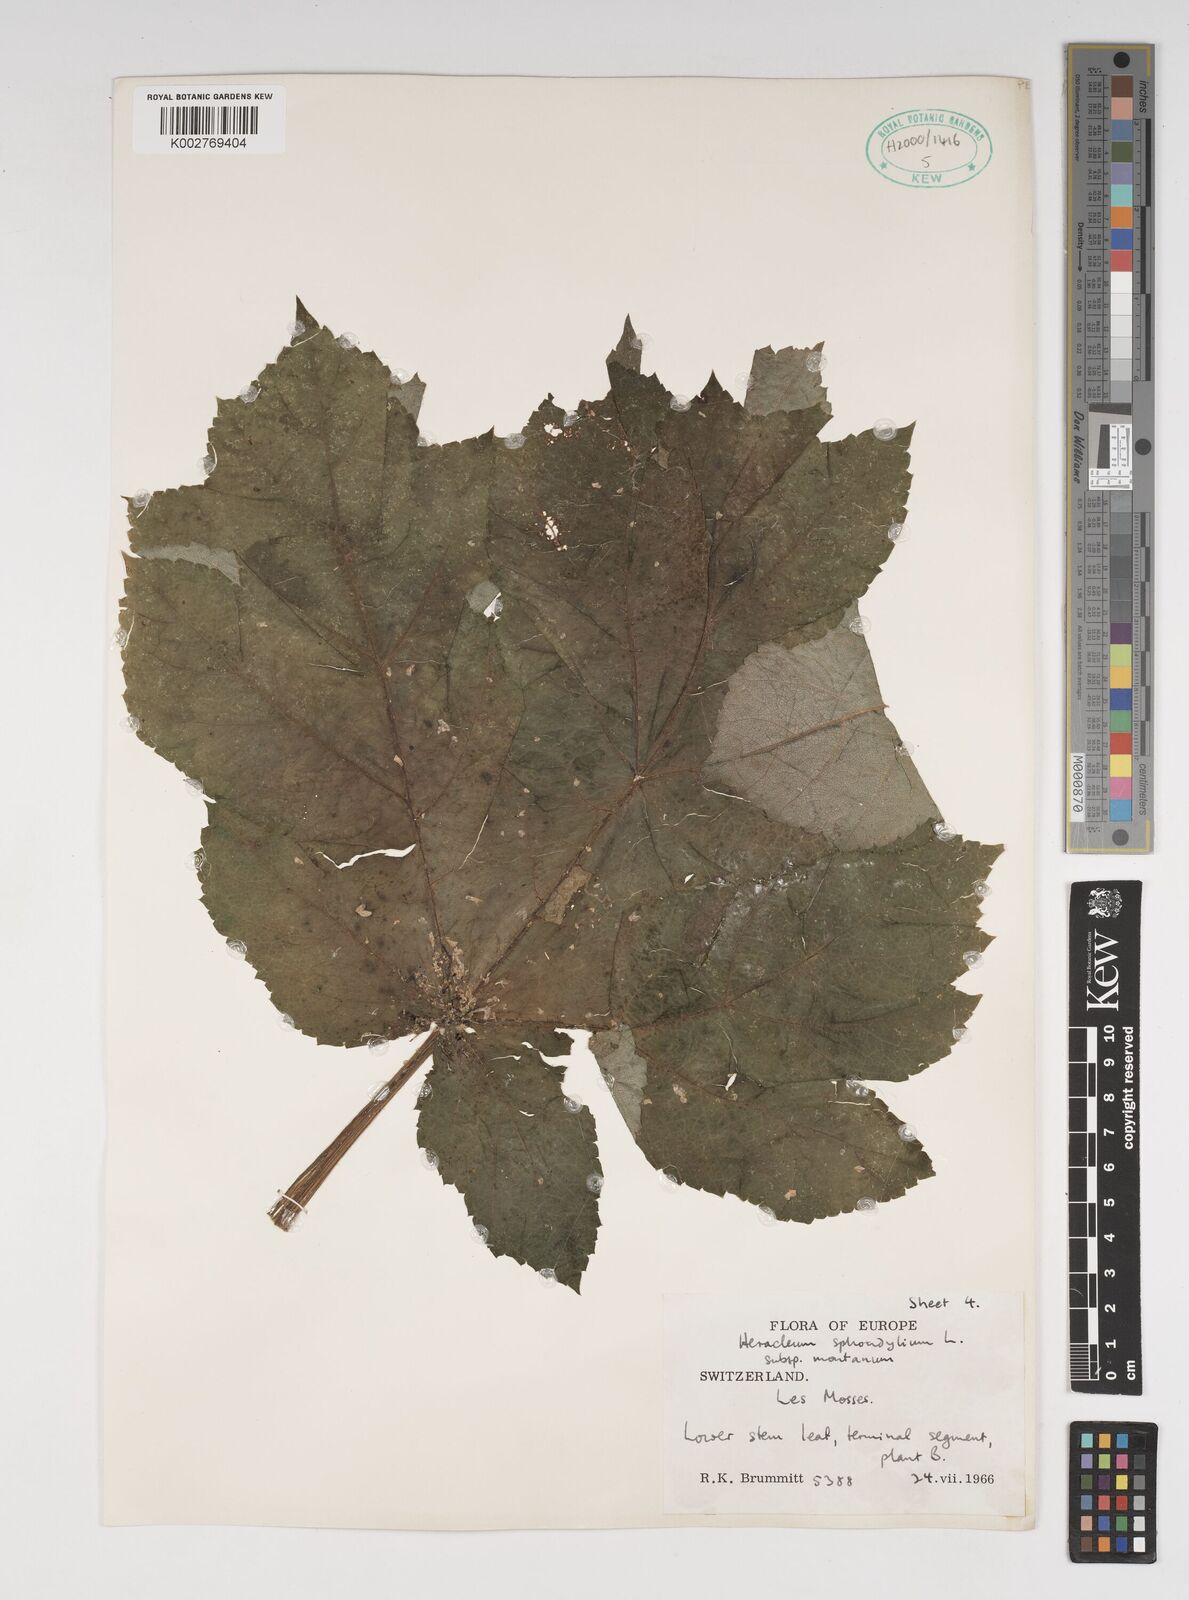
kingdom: Plantae
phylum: Tracheophyta
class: Magnoliopsida
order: Apiales
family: Apiaceae
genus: Heracleum
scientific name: Heracleum sphondylium
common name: Hogweed
